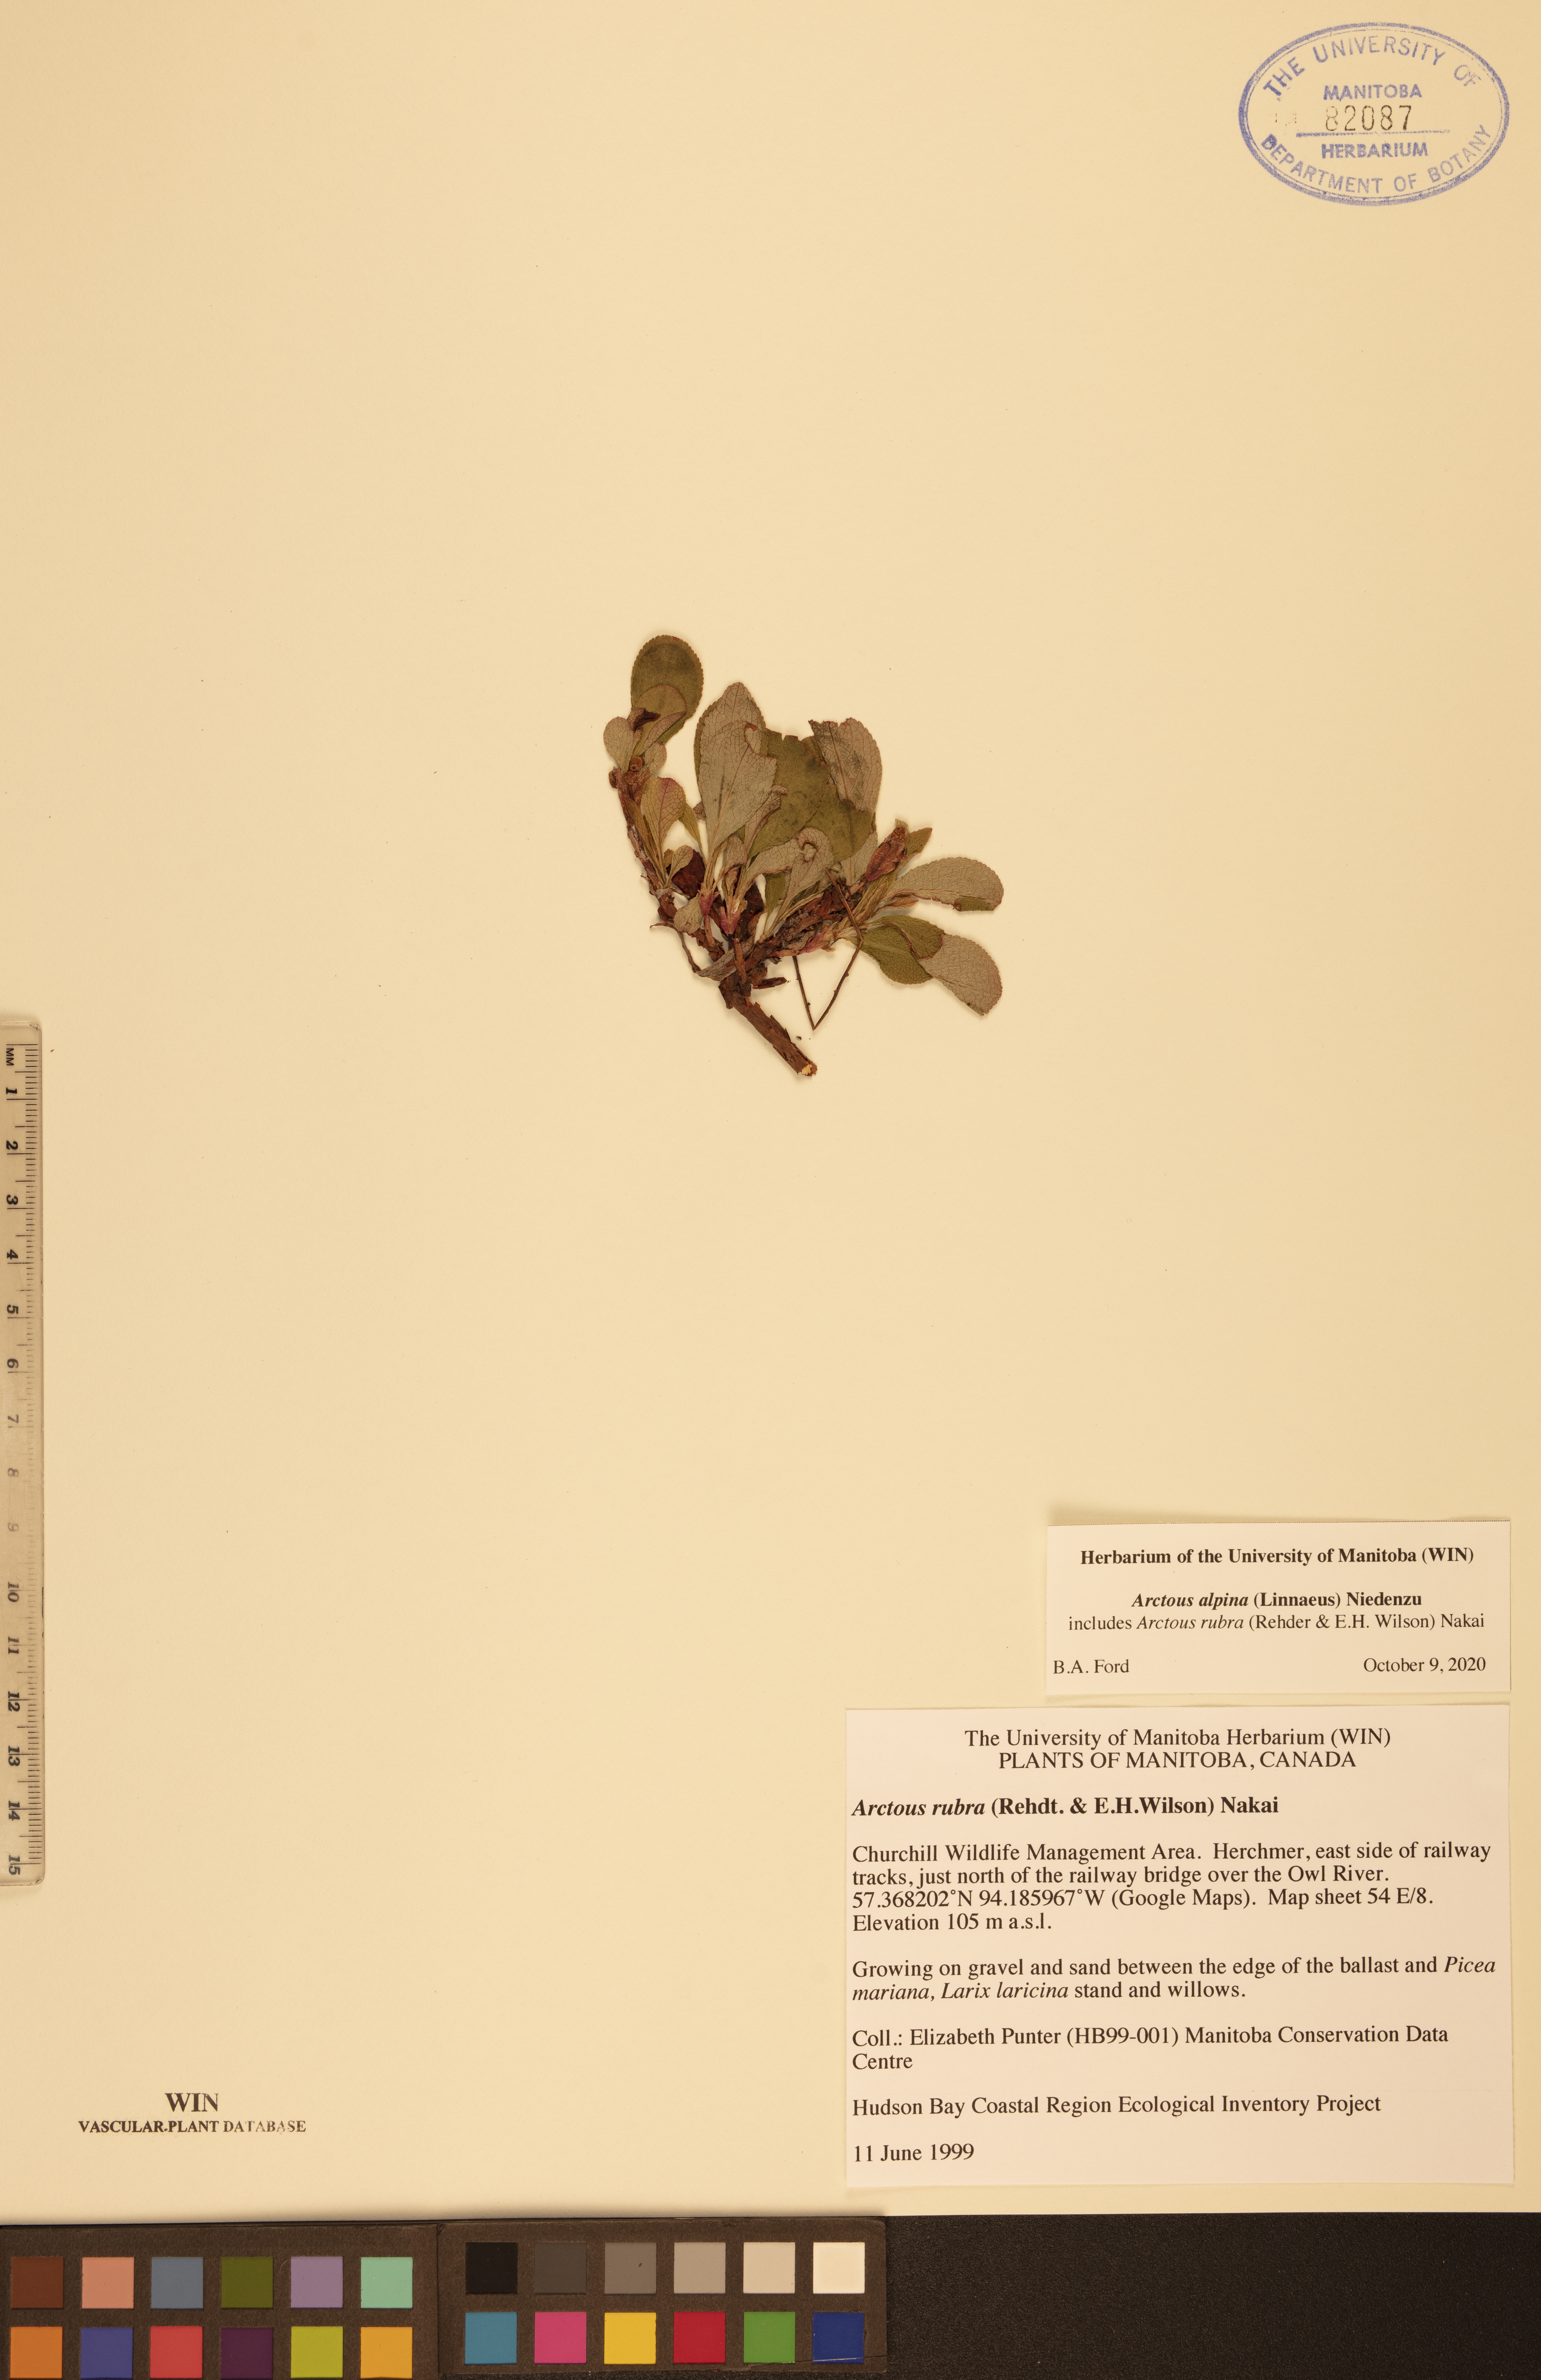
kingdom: Plantae
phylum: Tracheophyta
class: Magnoliopsida
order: Ericales
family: Ericaceae
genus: Arctostaphylos
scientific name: Arctostaphylos alpinus
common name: Alpine bearberry
